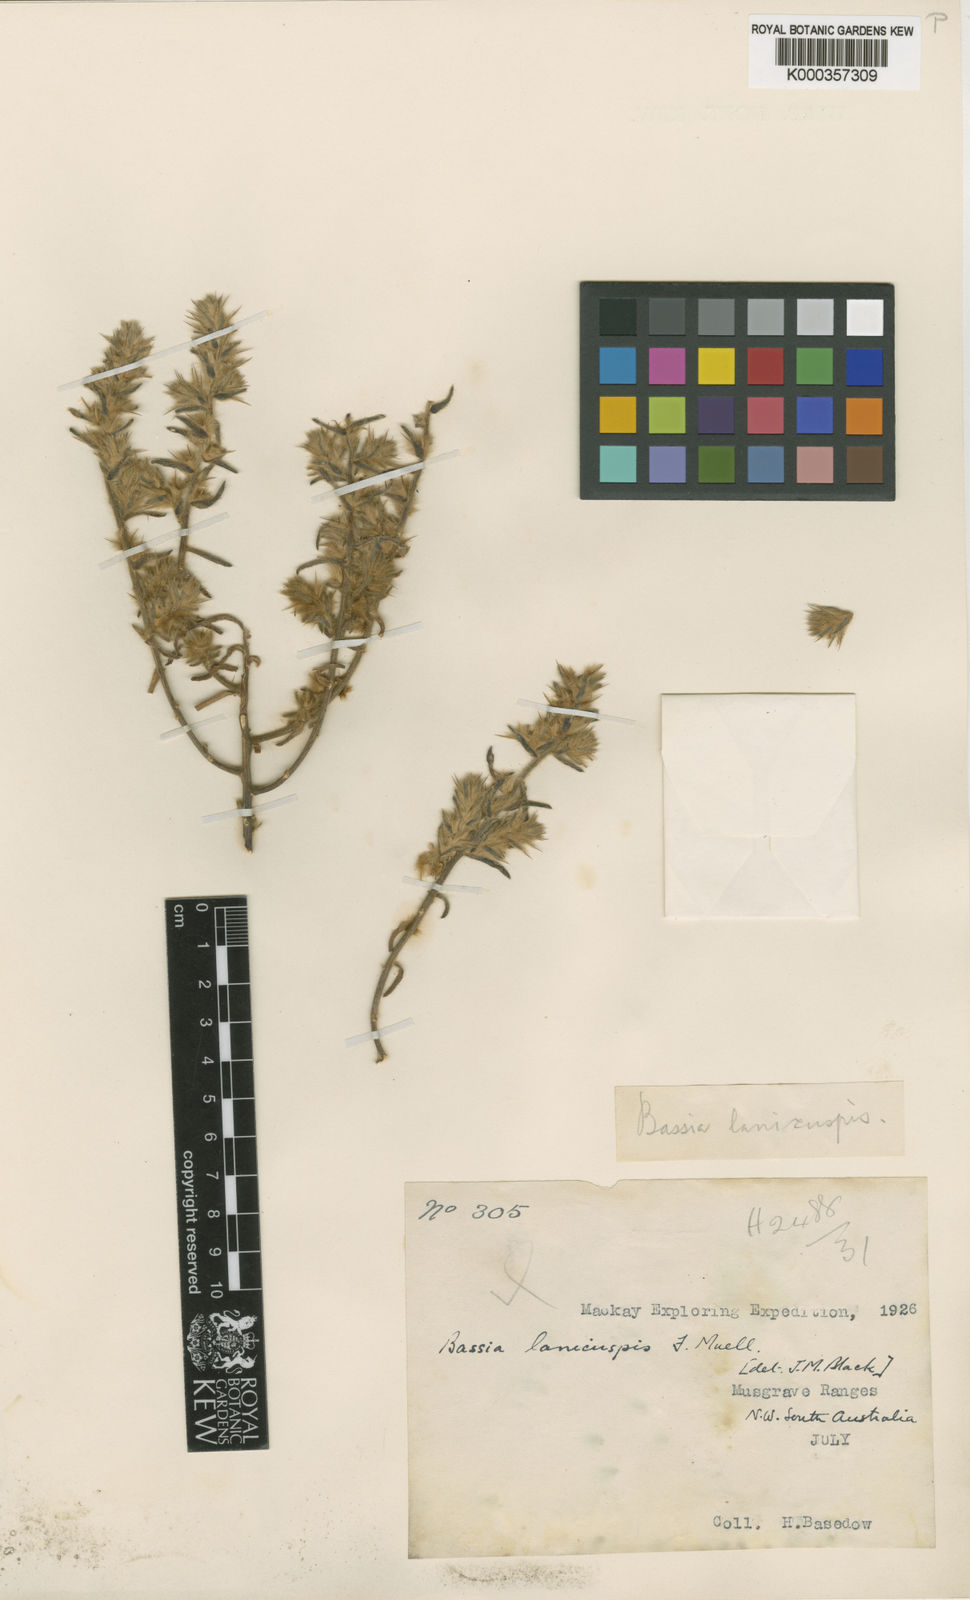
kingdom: Plantae
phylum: Tracheophyta
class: Magnoliopsida
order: Caryophyllales
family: Amaranthaceae
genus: Sclerolaena
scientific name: Sclerolaena lanicuspis
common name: Copperbur
